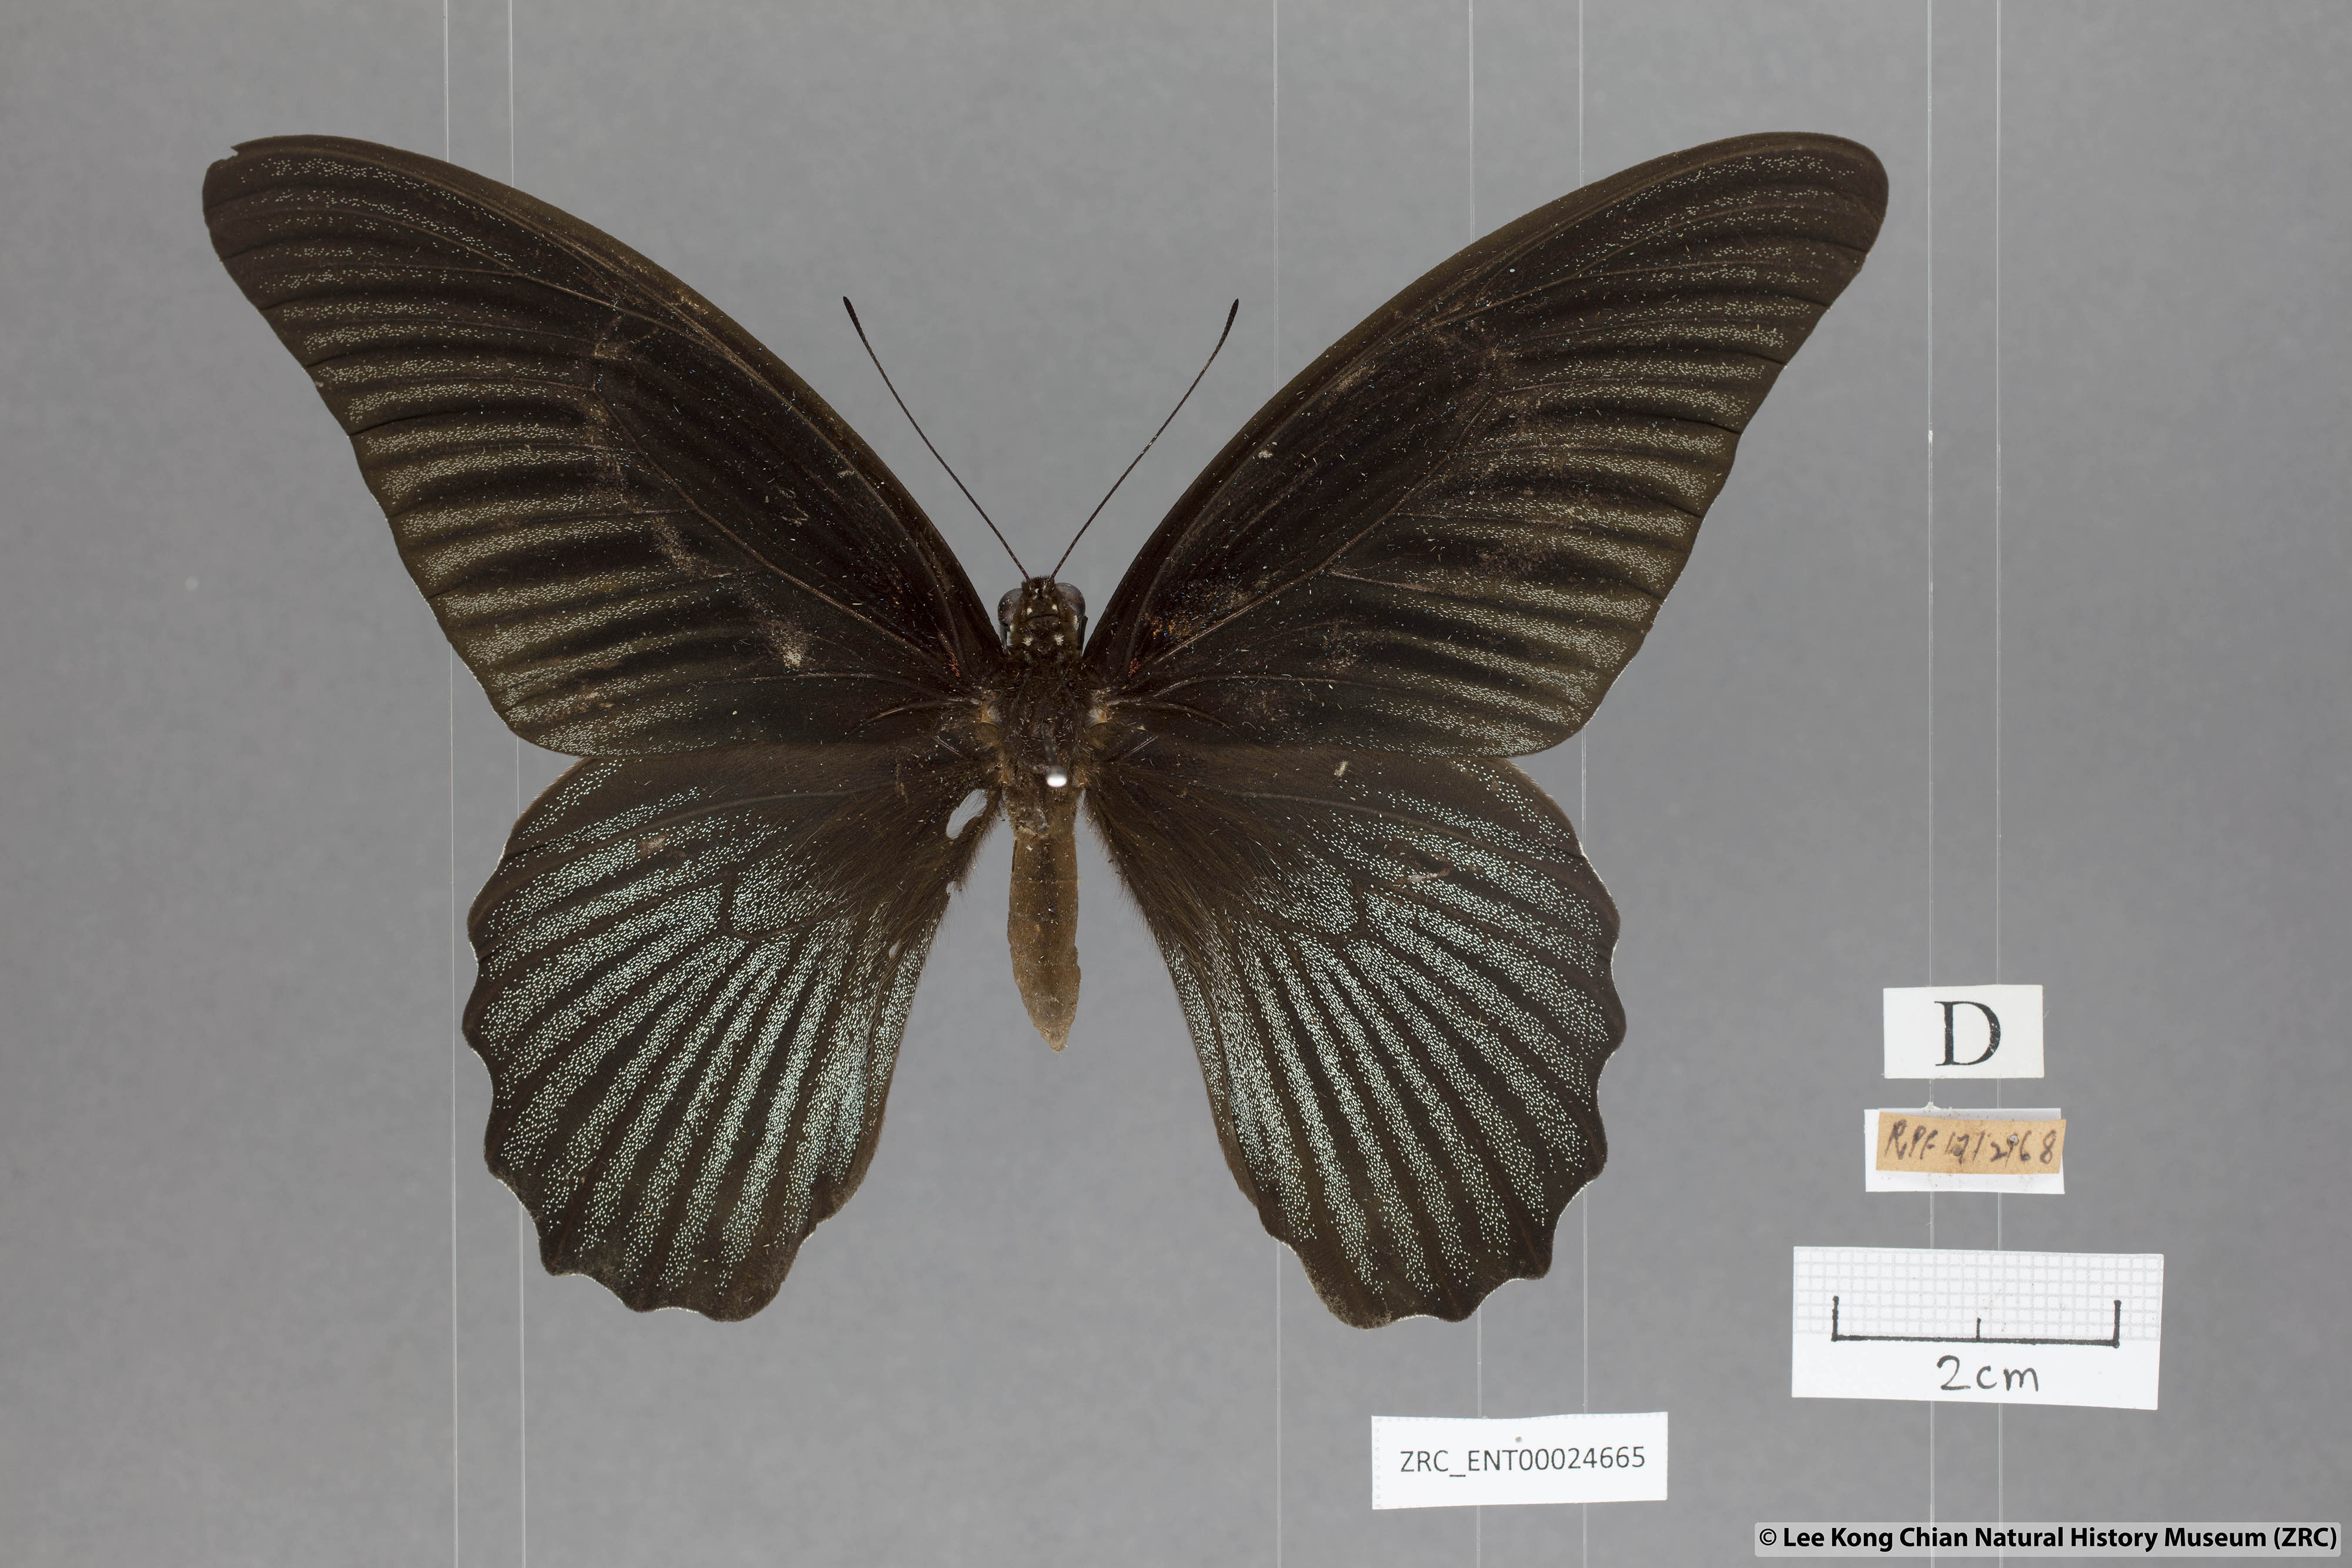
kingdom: Animalia
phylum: Arthropoda
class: Insecta
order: Lepidoptera
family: Papilionidae
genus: Papilio
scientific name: Papilio memnon
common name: Great mormon
